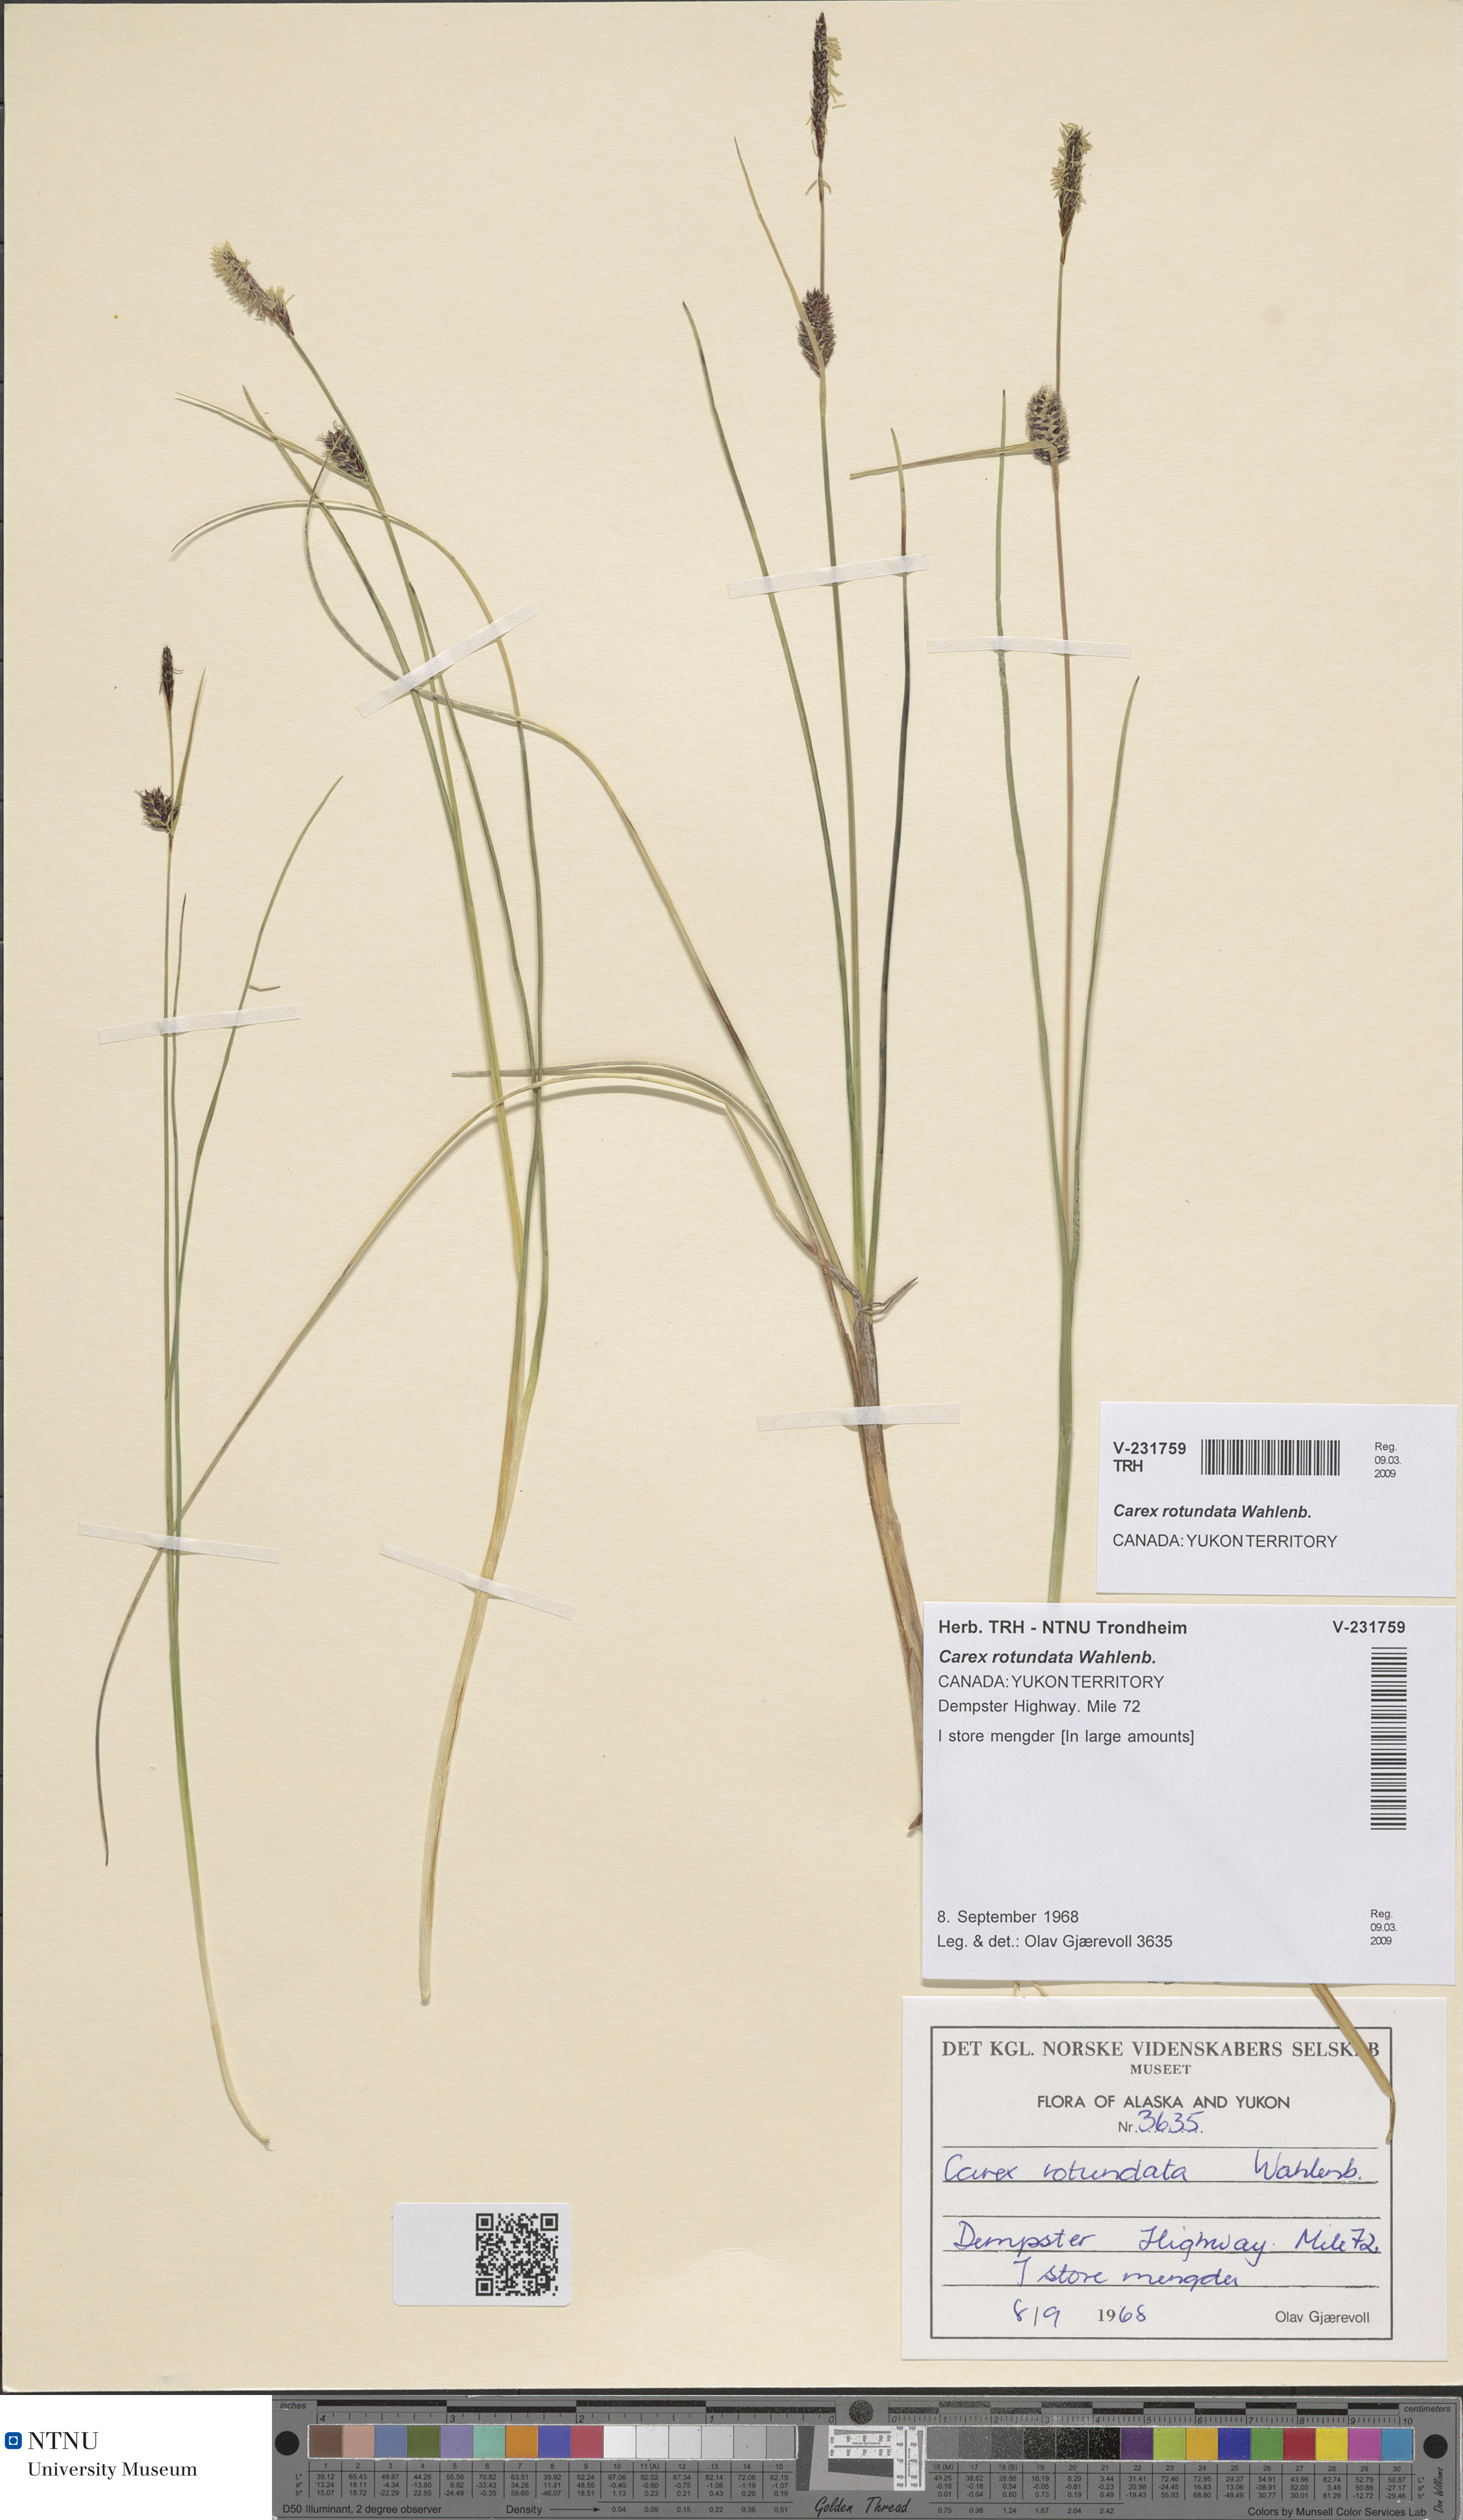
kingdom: Plantae
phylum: Tracheophyta
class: Liliopsida
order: Poales
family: Cyperaceae
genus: Carex
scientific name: Carex rotundata
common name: Round-fruited sedge
